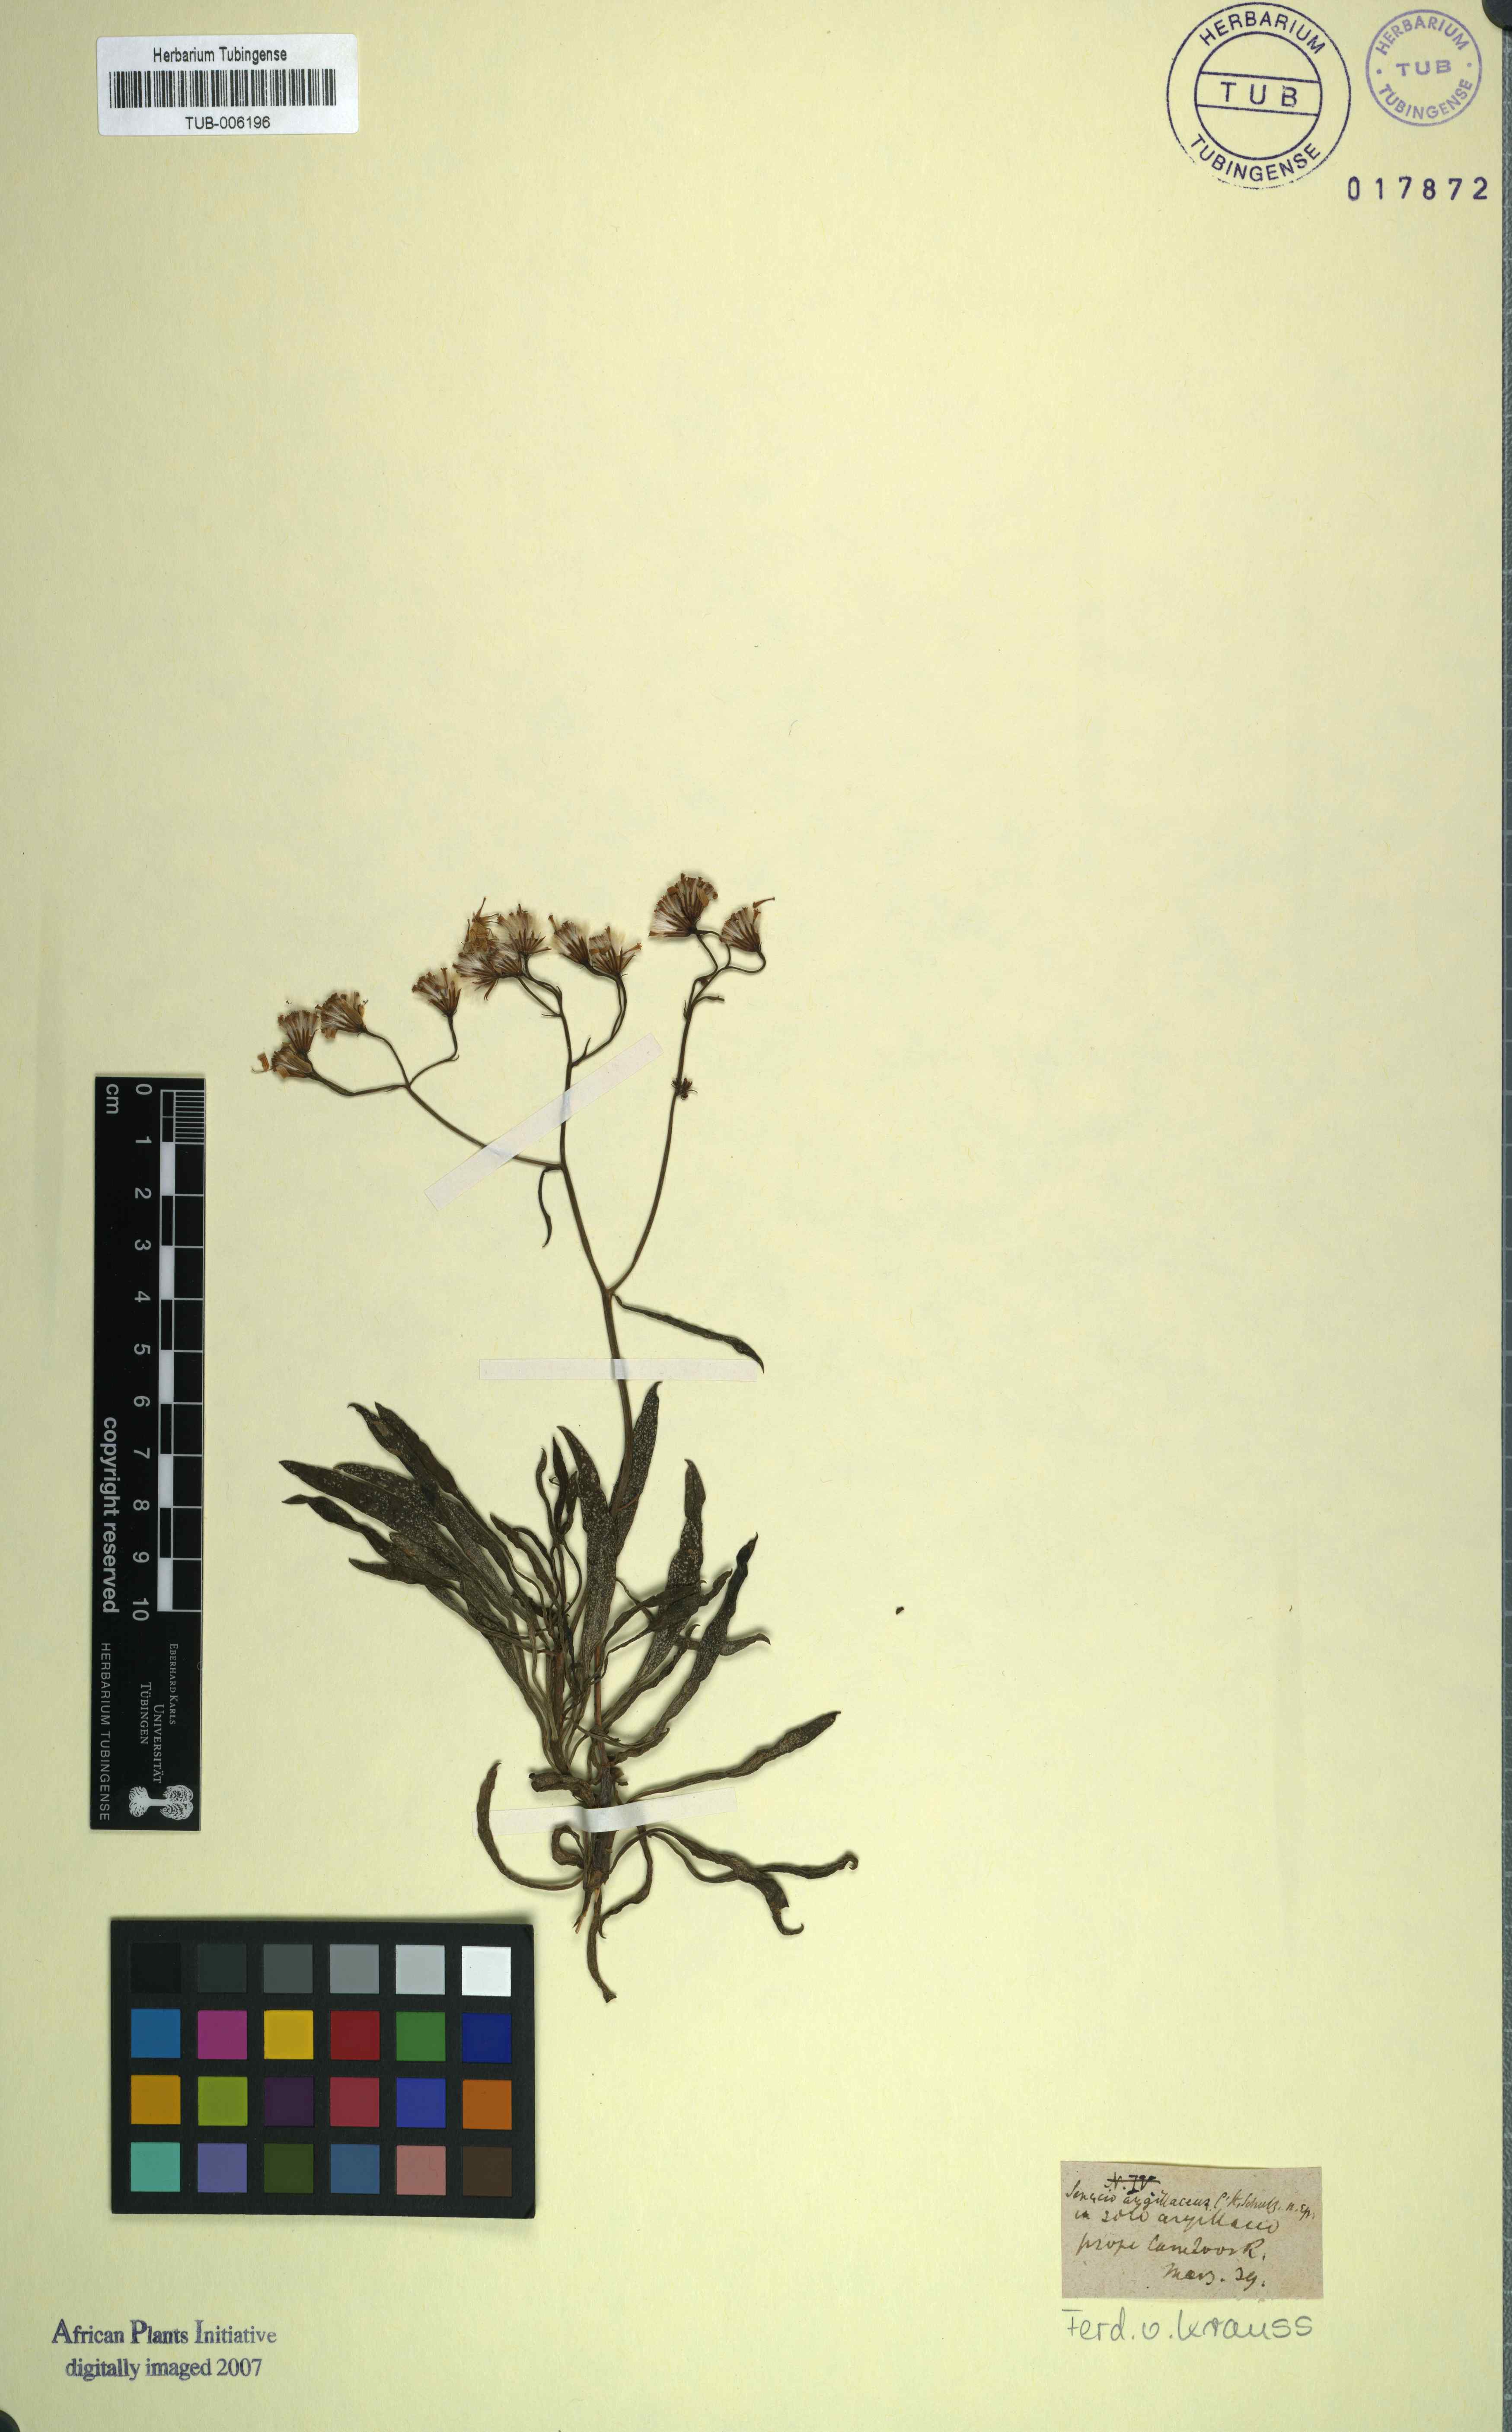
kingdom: Plantae
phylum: Tracheophyta
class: Magnoliopsida
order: Asterales
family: Asteraceae
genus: Senecio
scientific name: Senecio
